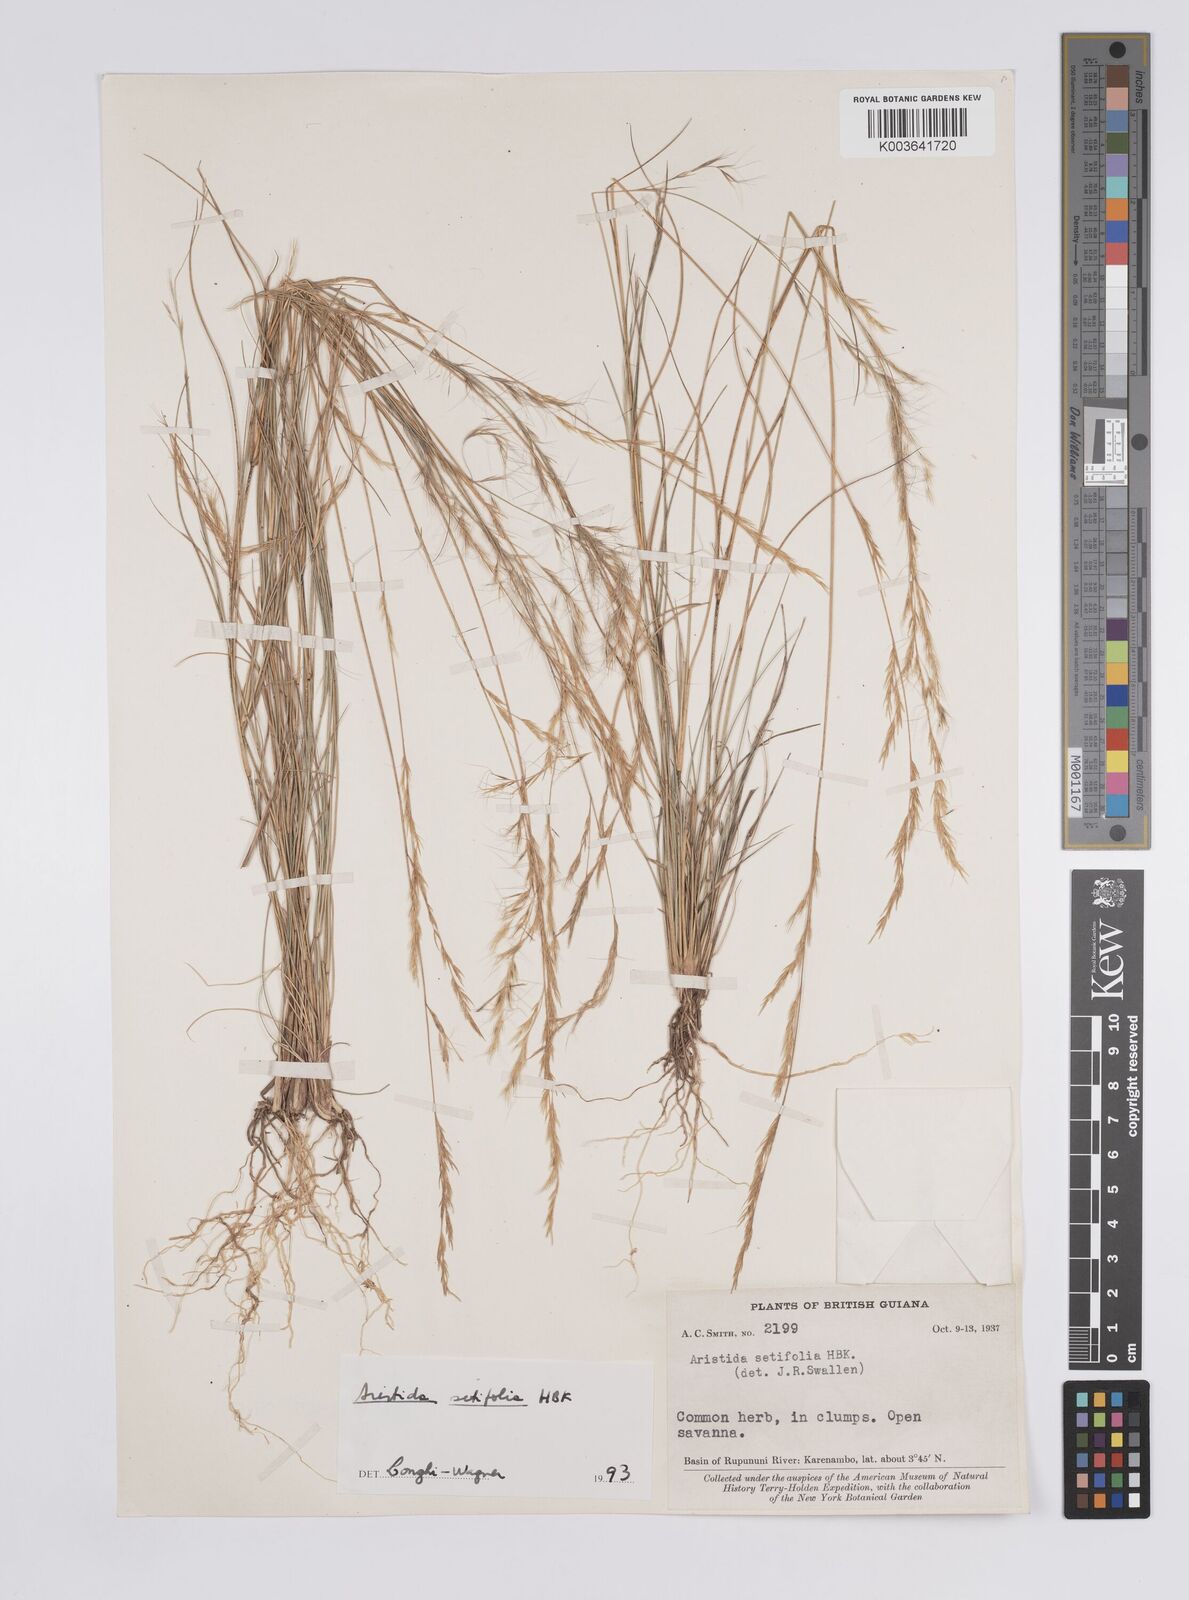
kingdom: Plantae
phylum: Tracheophyta
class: Liliopsida
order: Poales
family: Poaceae
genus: Aristida
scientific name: Aristida setifolia
